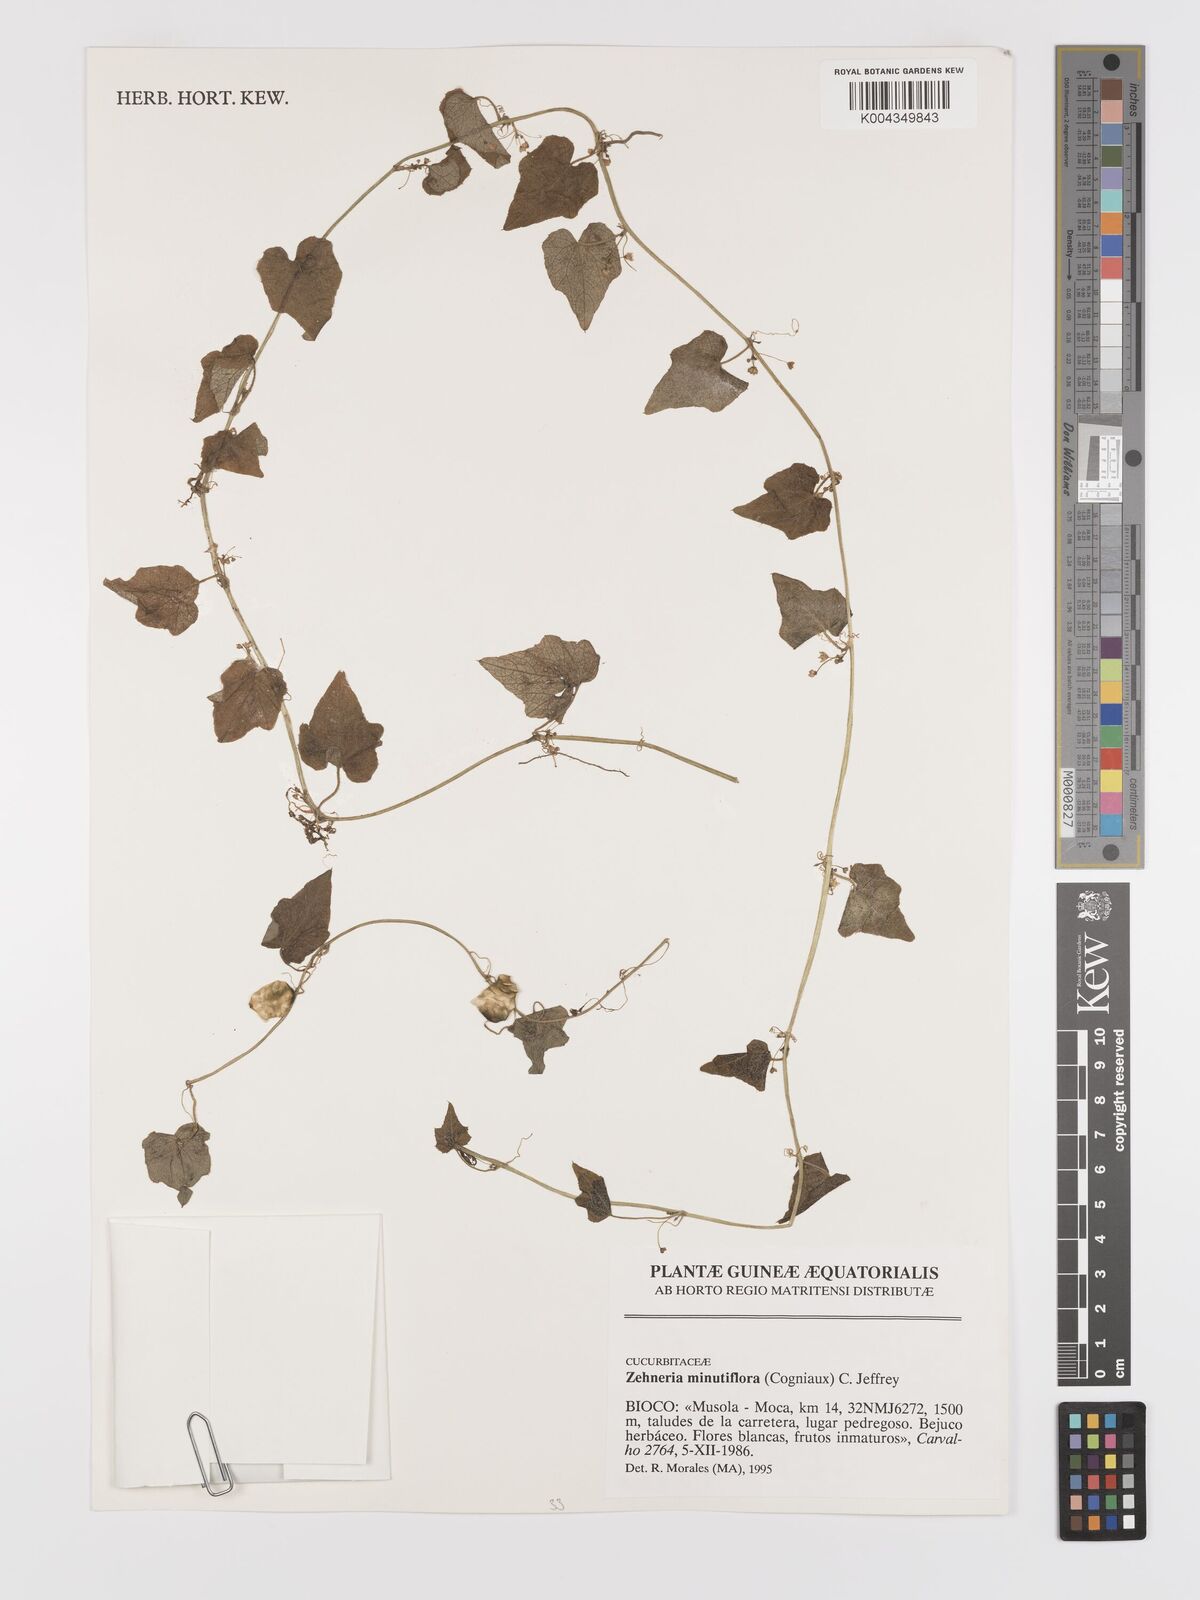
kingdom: Plantae
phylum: Tracheophyta
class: Magnoliopsida
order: Cucurbitales
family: Cucurbitaceae
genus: Zehneria
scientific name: Zehneria minutiflora
